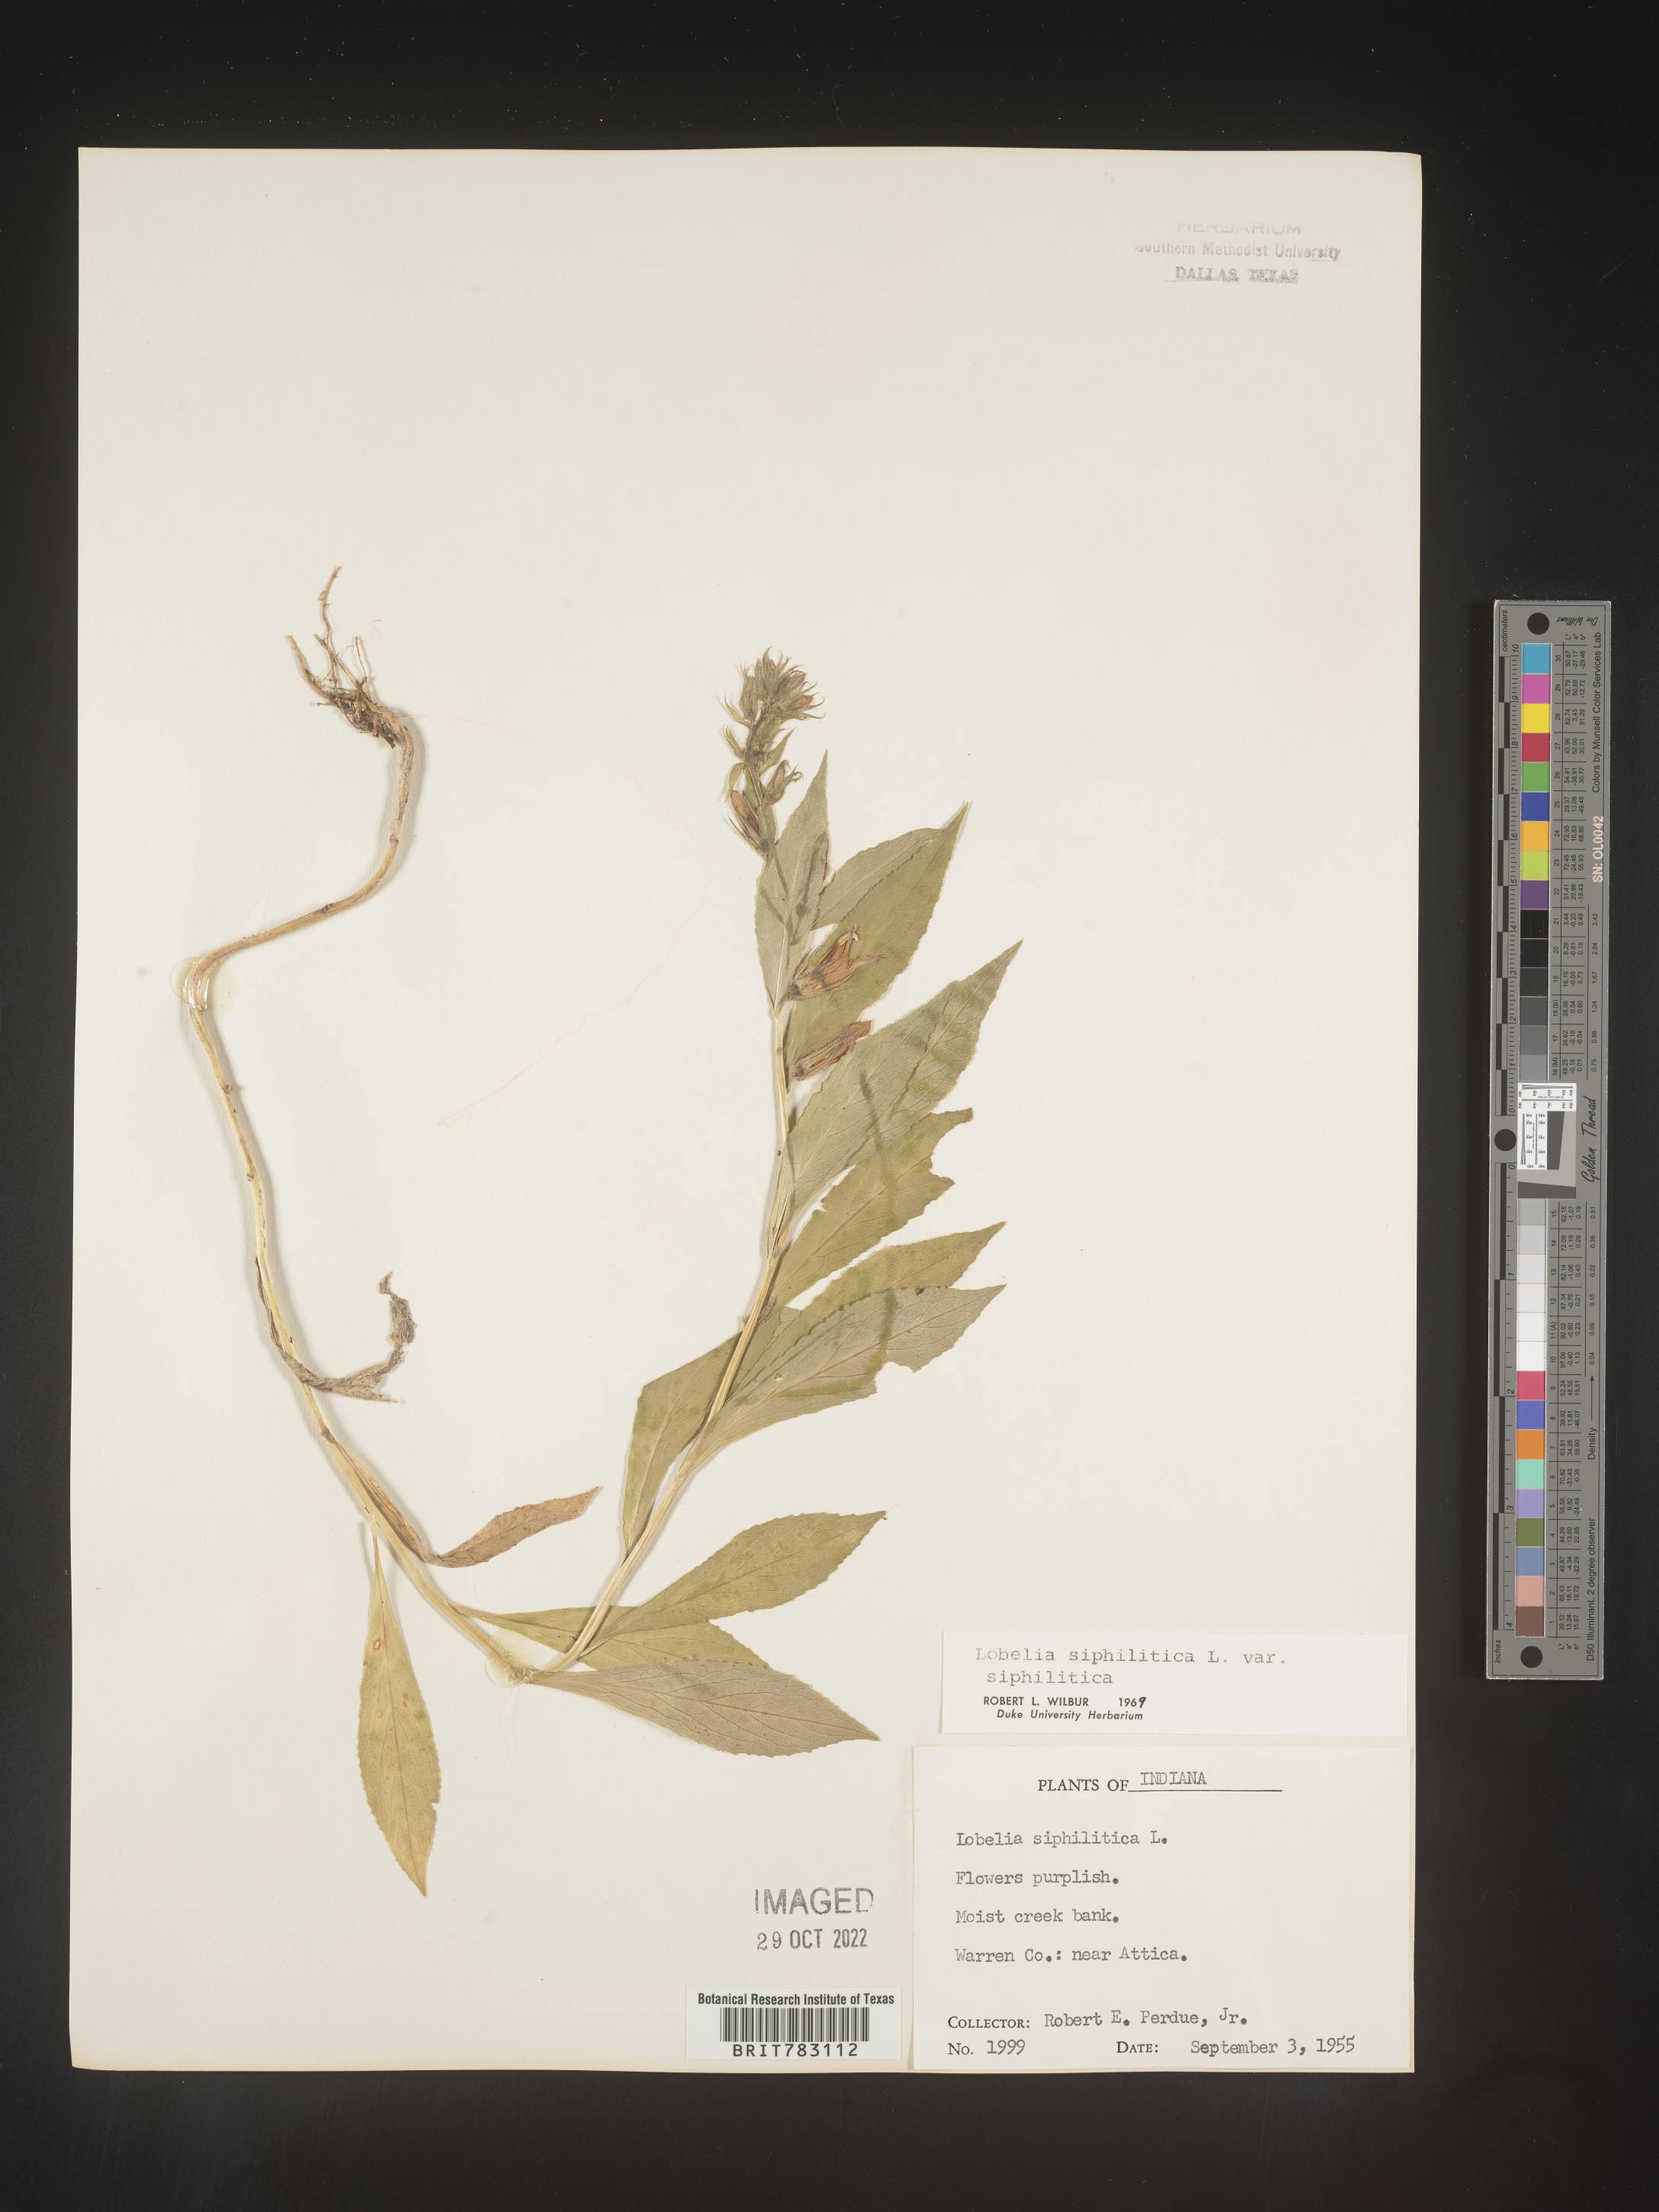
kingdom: Plantae
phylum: Tracheophyta
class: Magnoliopsida
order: Asterales
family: Campanulaceae
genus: Lobelia
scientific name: Lobelia siphilitica
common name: Great lobelia
